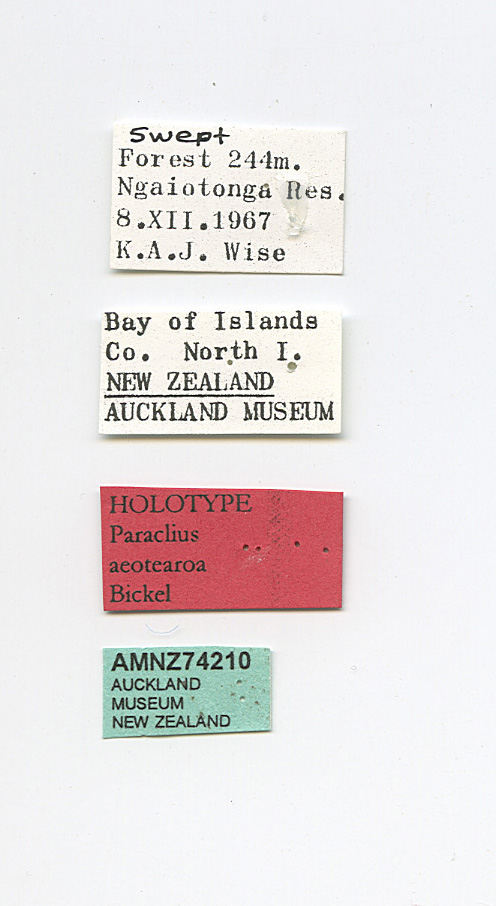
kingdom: Animalia
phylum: Arthropoda
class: Insecta
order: Diptera
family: Dolichopodidae
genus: Paraclius
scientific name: Paraclius aeotearoa
